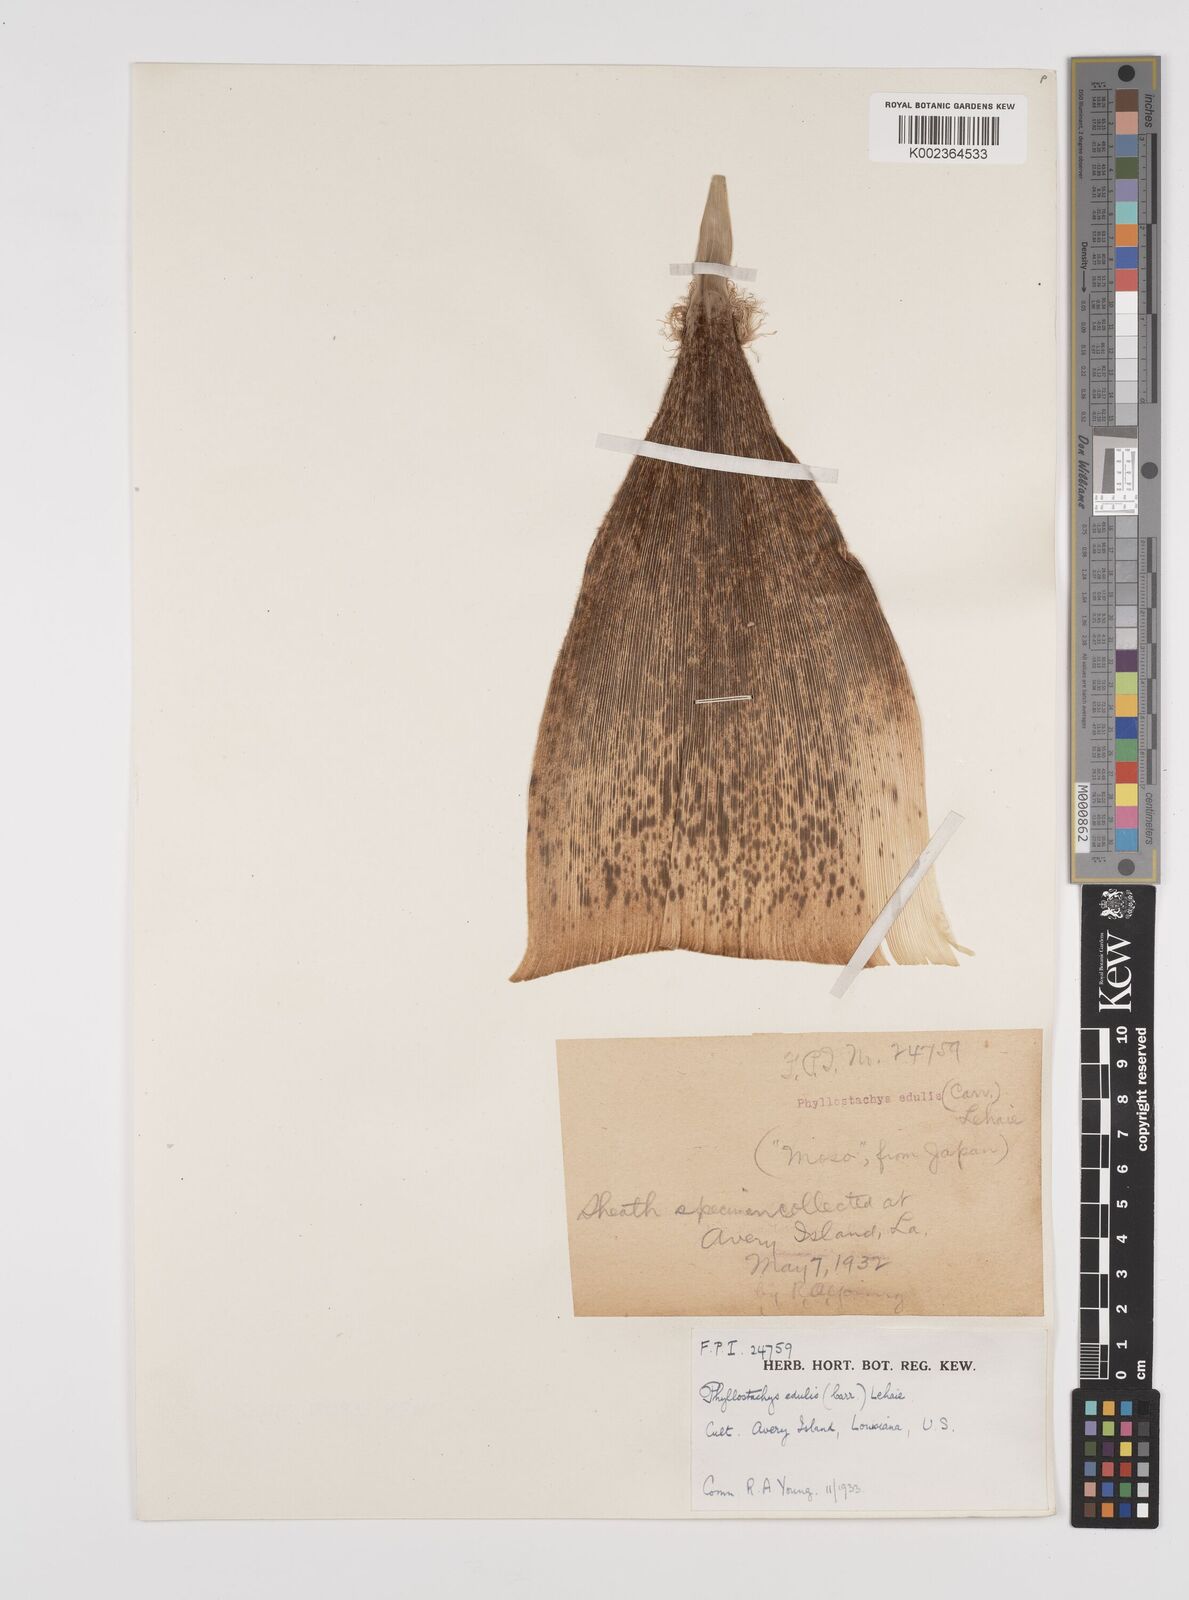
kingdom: Plantae
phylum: Tracheophyta
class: Liliopsida
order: Poales
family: Poaceae
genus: Phyllostachys
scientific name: Phyllostachys edulis
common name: Tortoise shell bamboo
